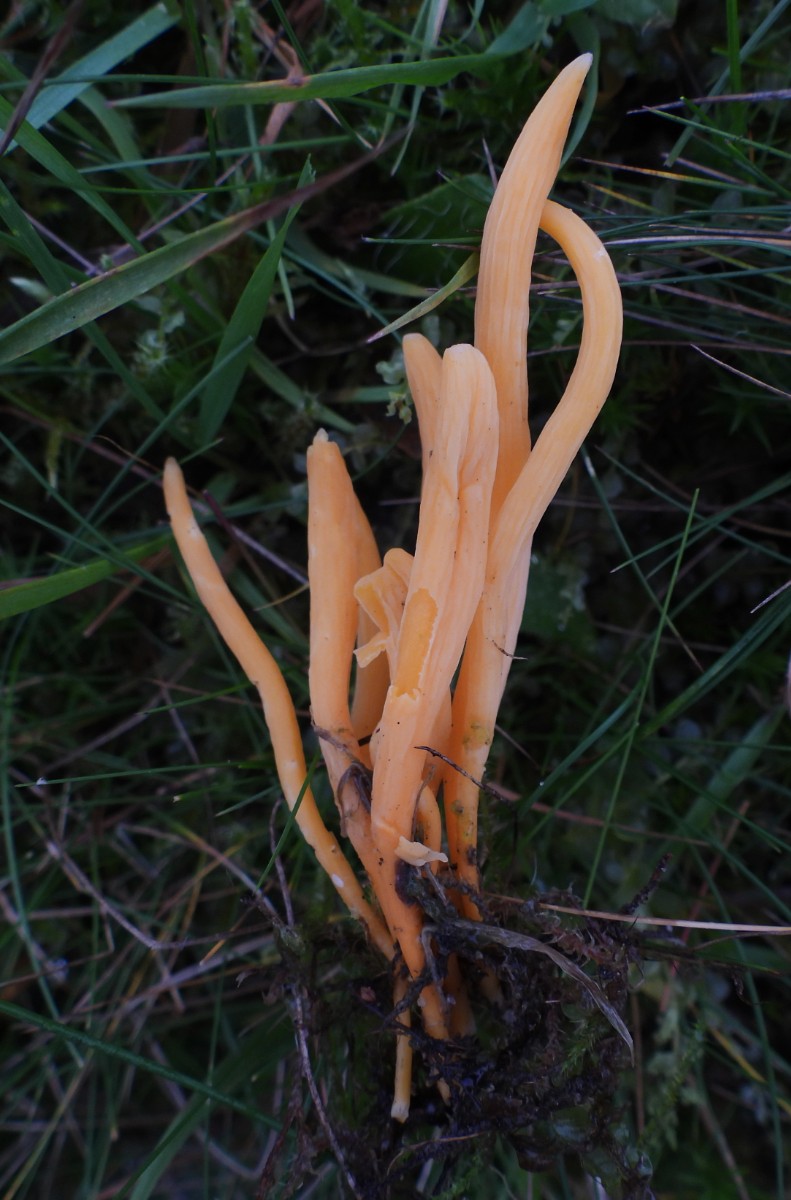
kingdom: Fungi
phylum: Basidiomycota
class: Agaricomycetes
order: Agaricales
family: Clavariaceae
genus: Clavulinopsis
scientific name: Clavulinopsis luteoalba
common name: abrikos-køllesvamp
